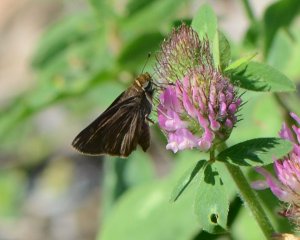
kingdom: Animalia
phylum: Arthropoda
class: Insecta
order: Lepidoptera
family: Hesperiidae
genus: Euphyes
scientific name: Euphyes vestris
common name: Dun Skipper
